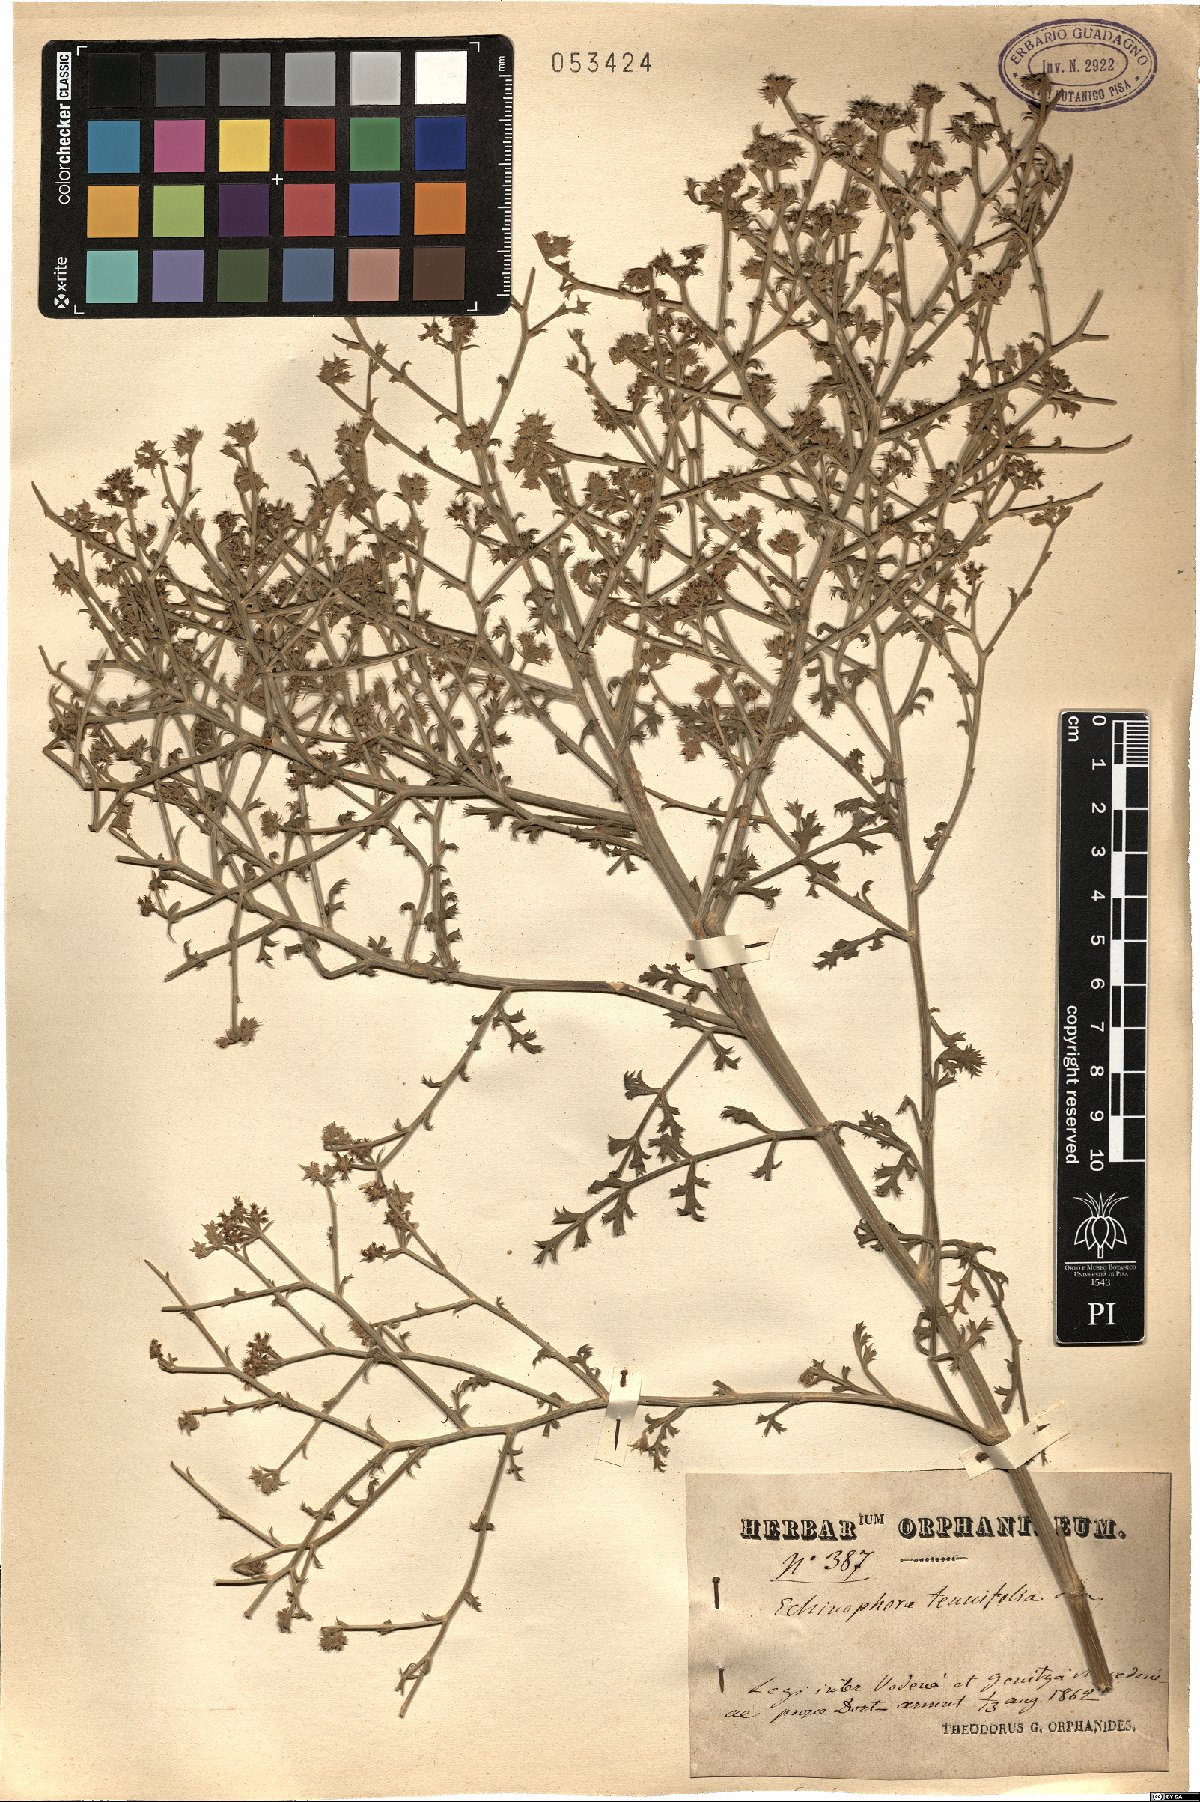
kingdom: Plantae
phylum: Tracheophyta
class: Magnoliopsida
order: Apiales
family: Apiaceae
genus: Echinophora
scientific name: Echinophora tenuifolia
